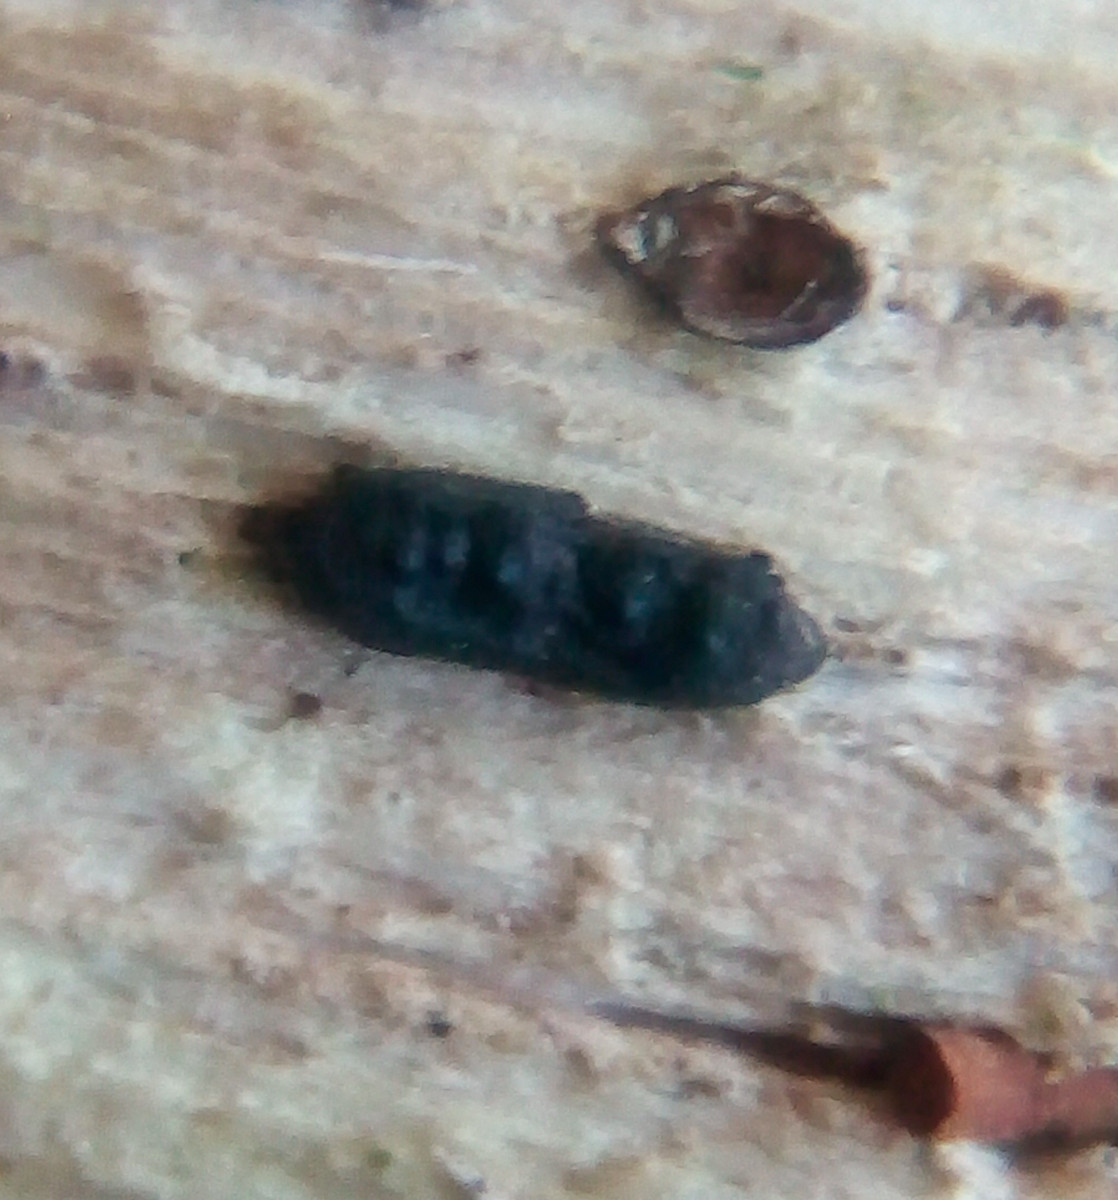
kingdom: Fungi
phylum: Ascomycota
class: Sordariomycetes
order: Xylariales
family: Xylariaceae
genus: Euepixylon
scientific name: Euepixylon udum
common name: ege-kuldyne
